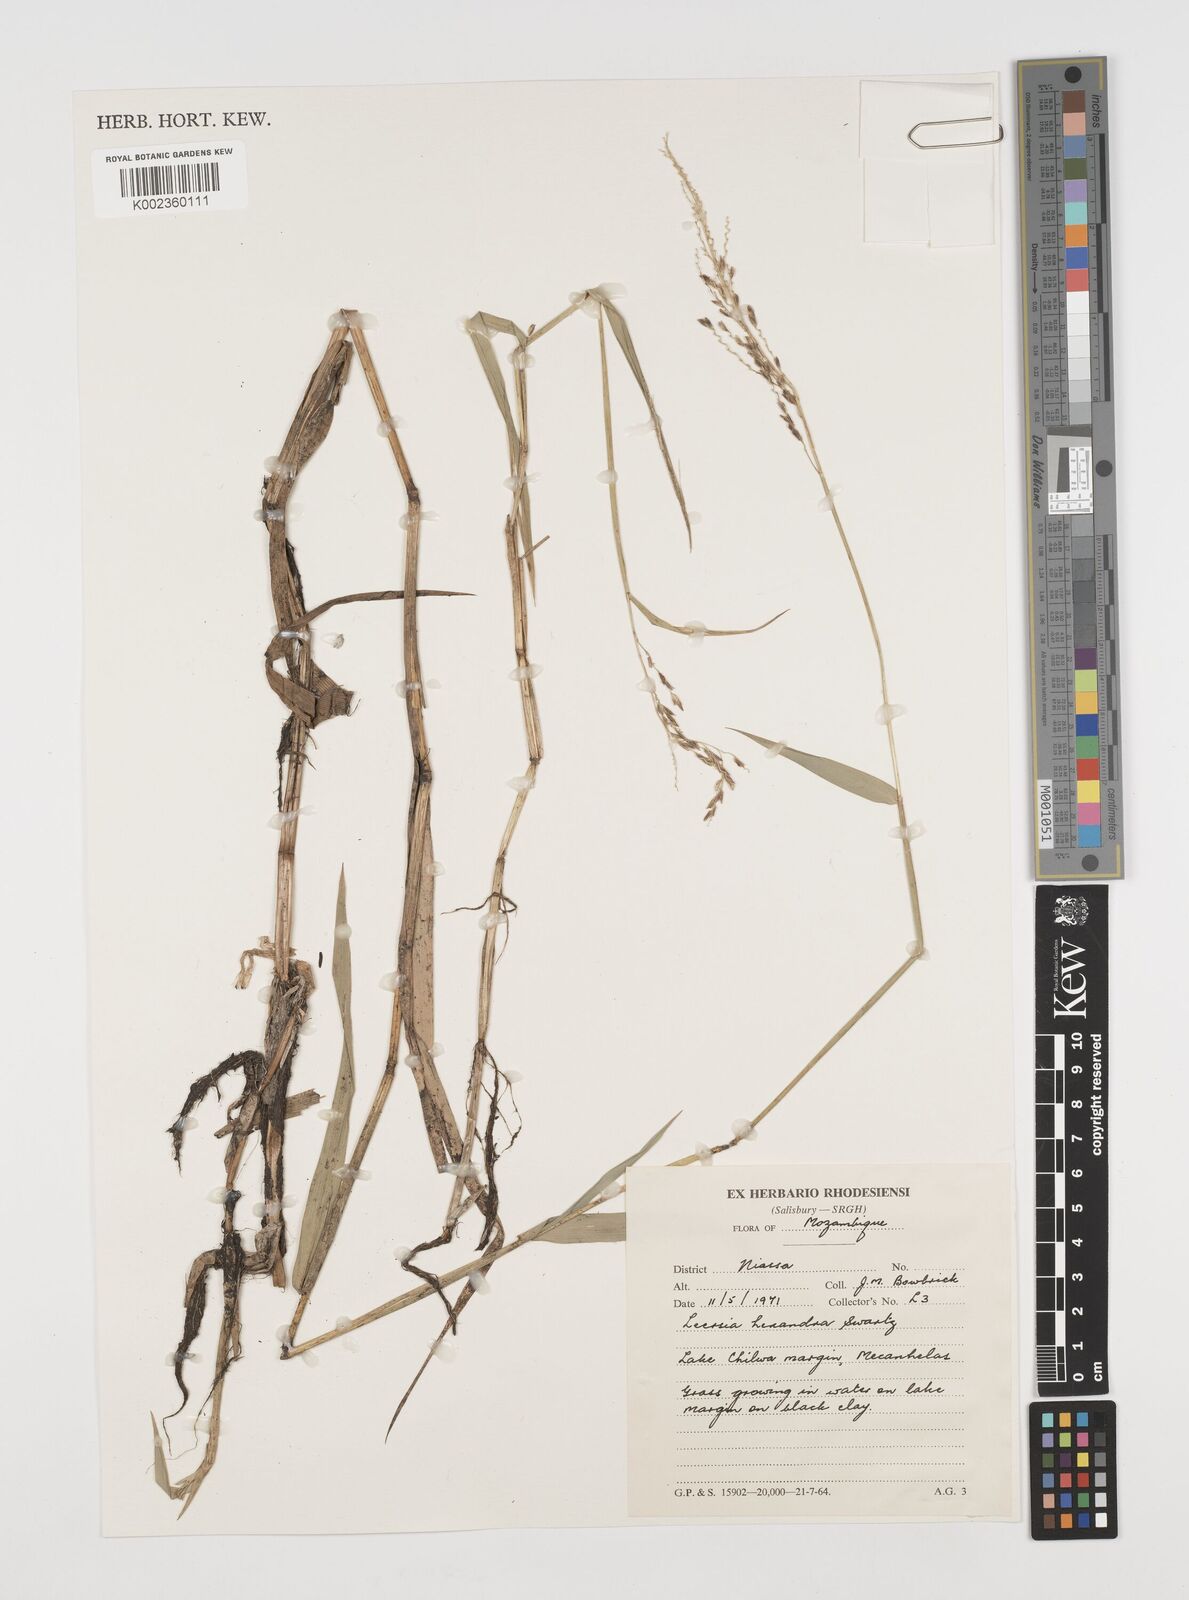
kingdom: Plantae
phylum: Tracheophyta
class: Liliopsida
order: Poales
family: Poaceae
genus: Leersia
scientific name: Leersia hexandra
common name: Southern cut grass
